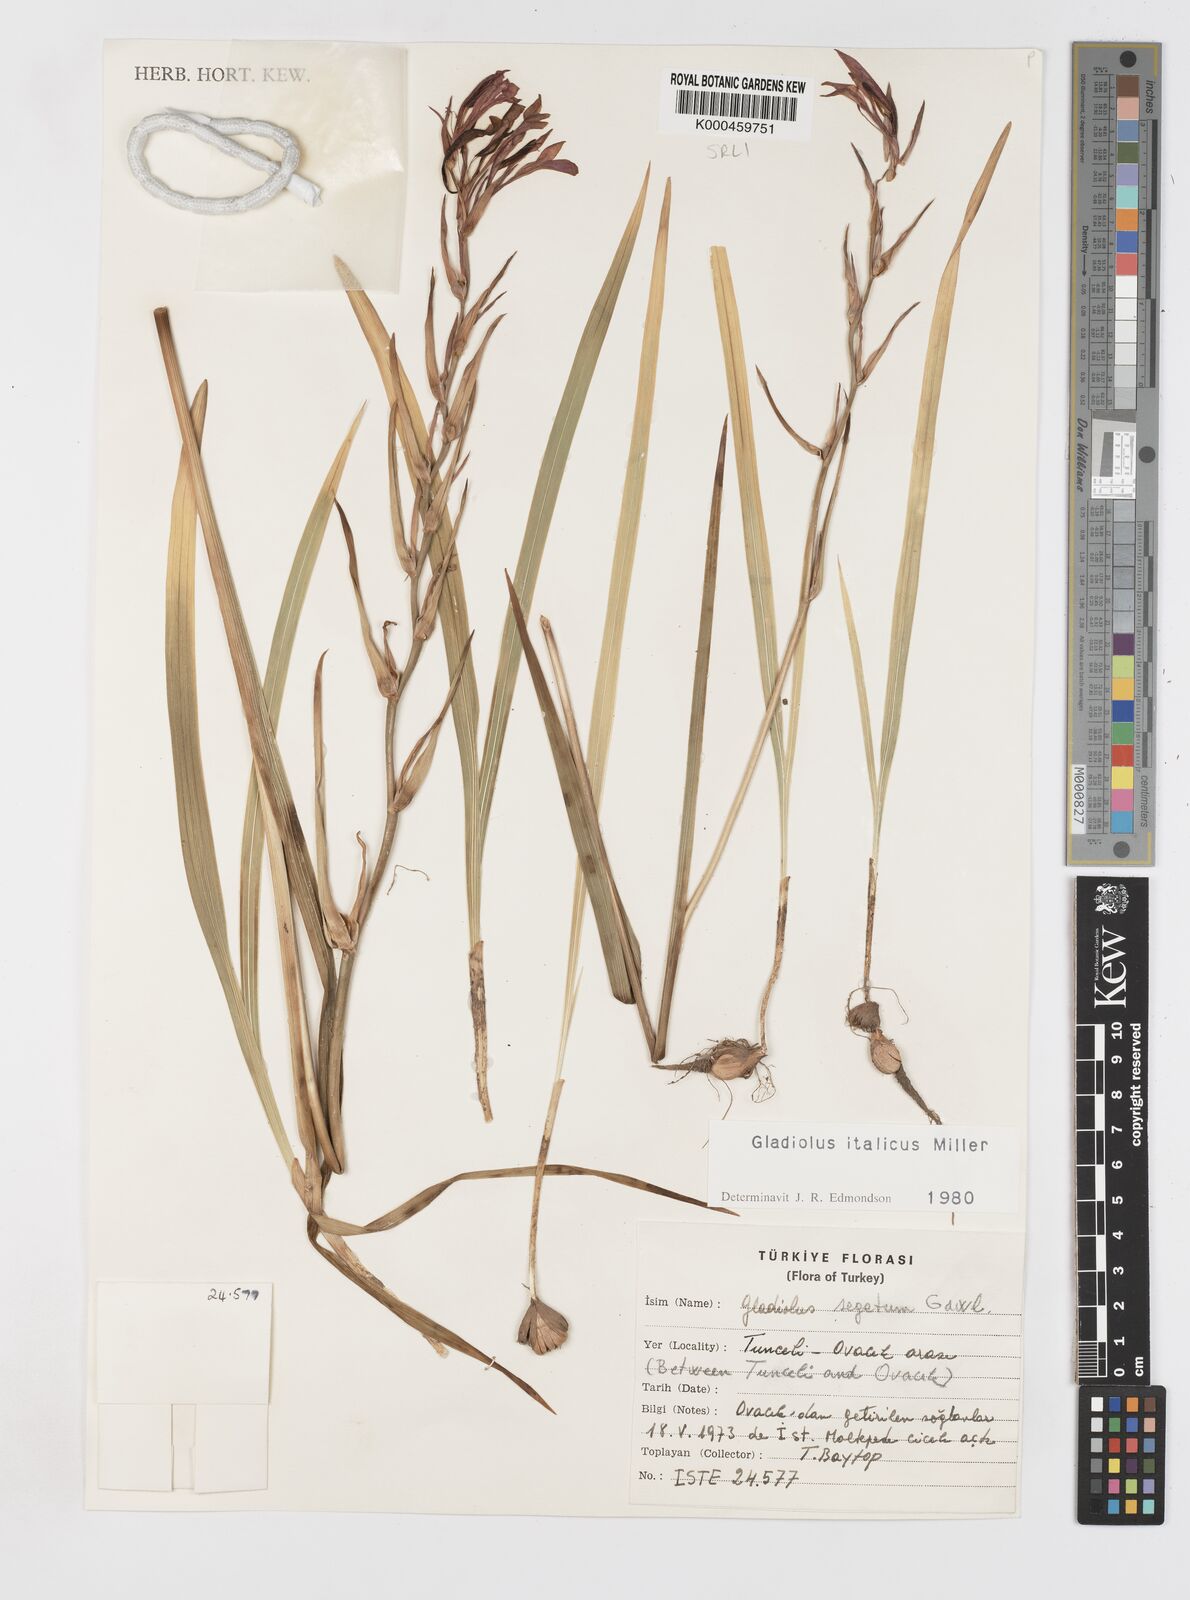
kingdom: Plantae
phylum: Tracheophyta
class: Liliopsida
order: Asparagales
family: Iridaceae
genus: Gladiolus
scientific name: Gladiolus italicus
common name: Field gladiolus
